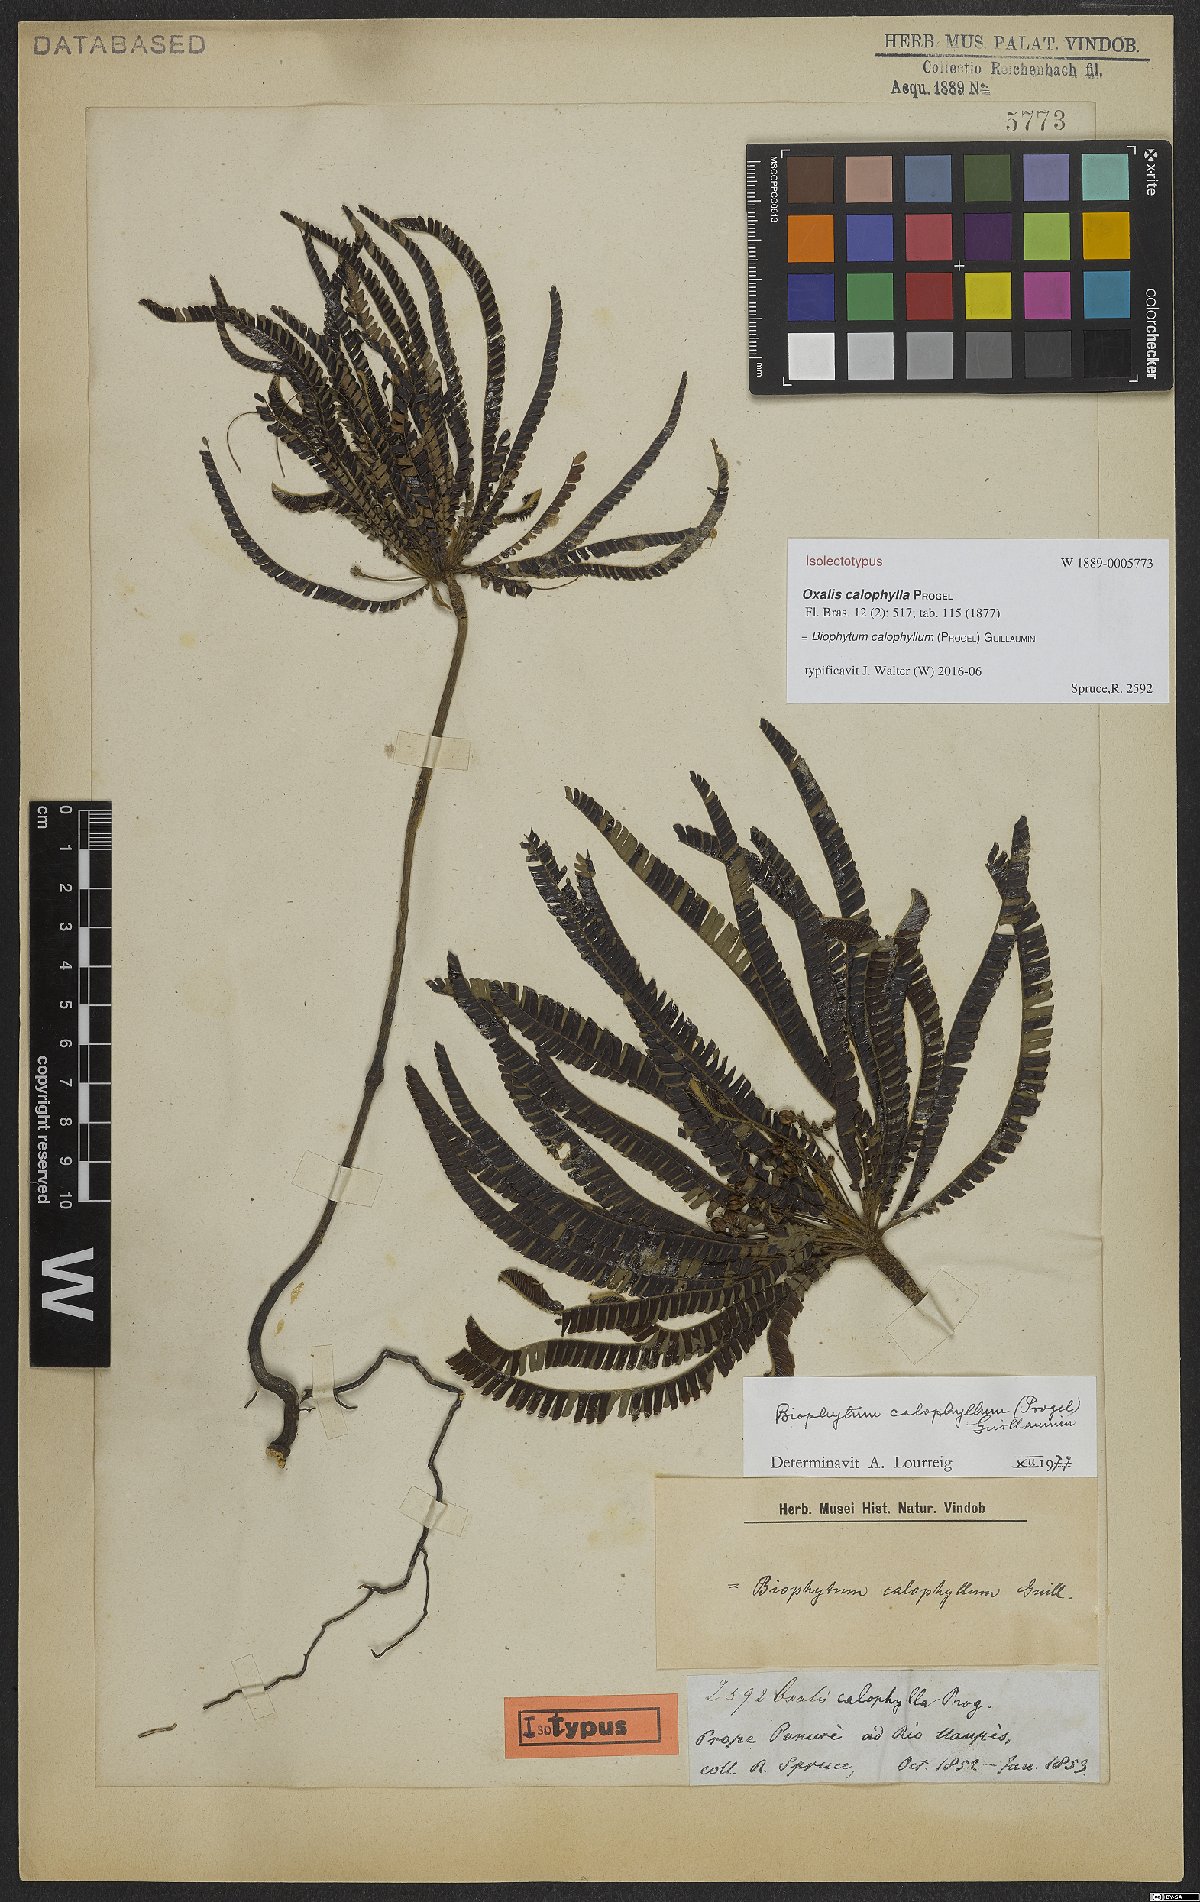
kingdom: Plantae
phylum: Tracheophyta
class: Magnoliopsida
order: Oxalidales
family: Oxalidaceae
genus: Biophytum
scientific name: Biophytum calophyllum
